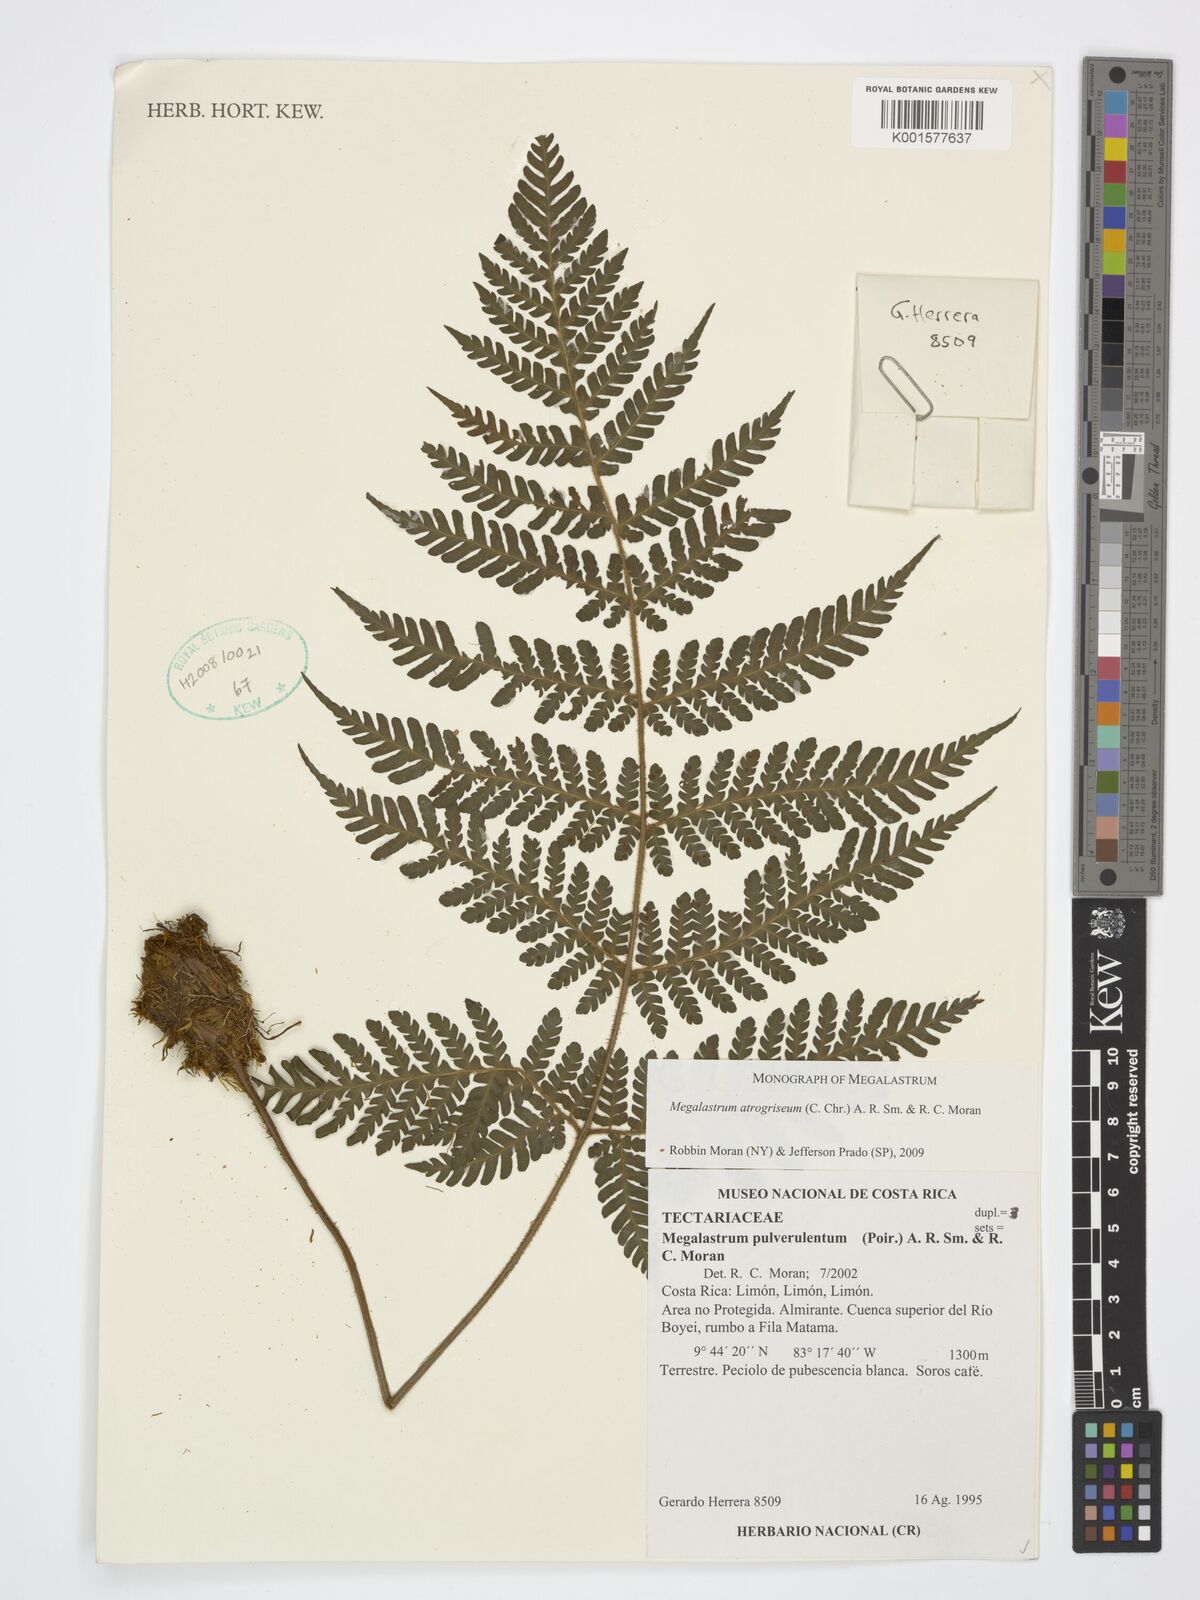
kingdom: Plantae
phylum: Tracheophyta
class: Polypodiopsida
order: Polypodiales
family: Dryopteridaceae
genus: Megalastrum
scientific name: Megalastrum atrogriseum
